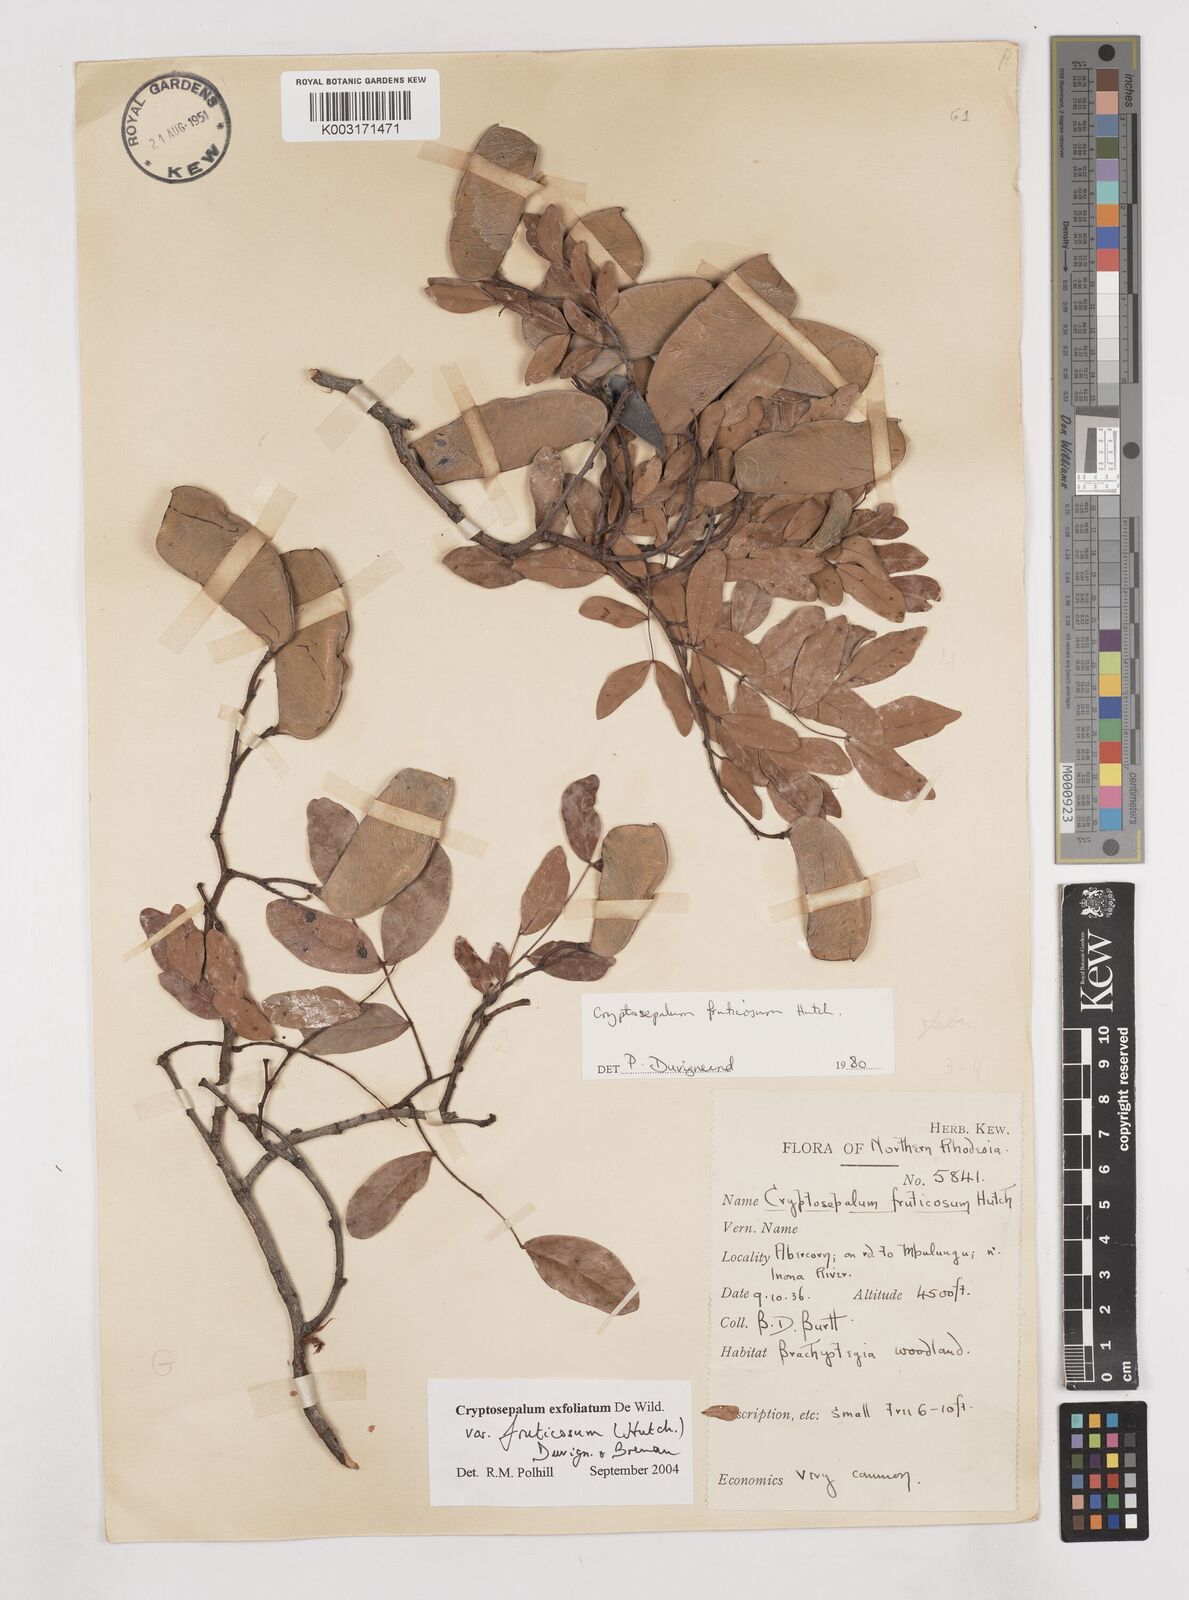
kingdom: Plantae
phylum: Tracheophyta
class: Magnoliopsida
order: Fabales
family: Fabaceae
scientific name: Fabaceae
